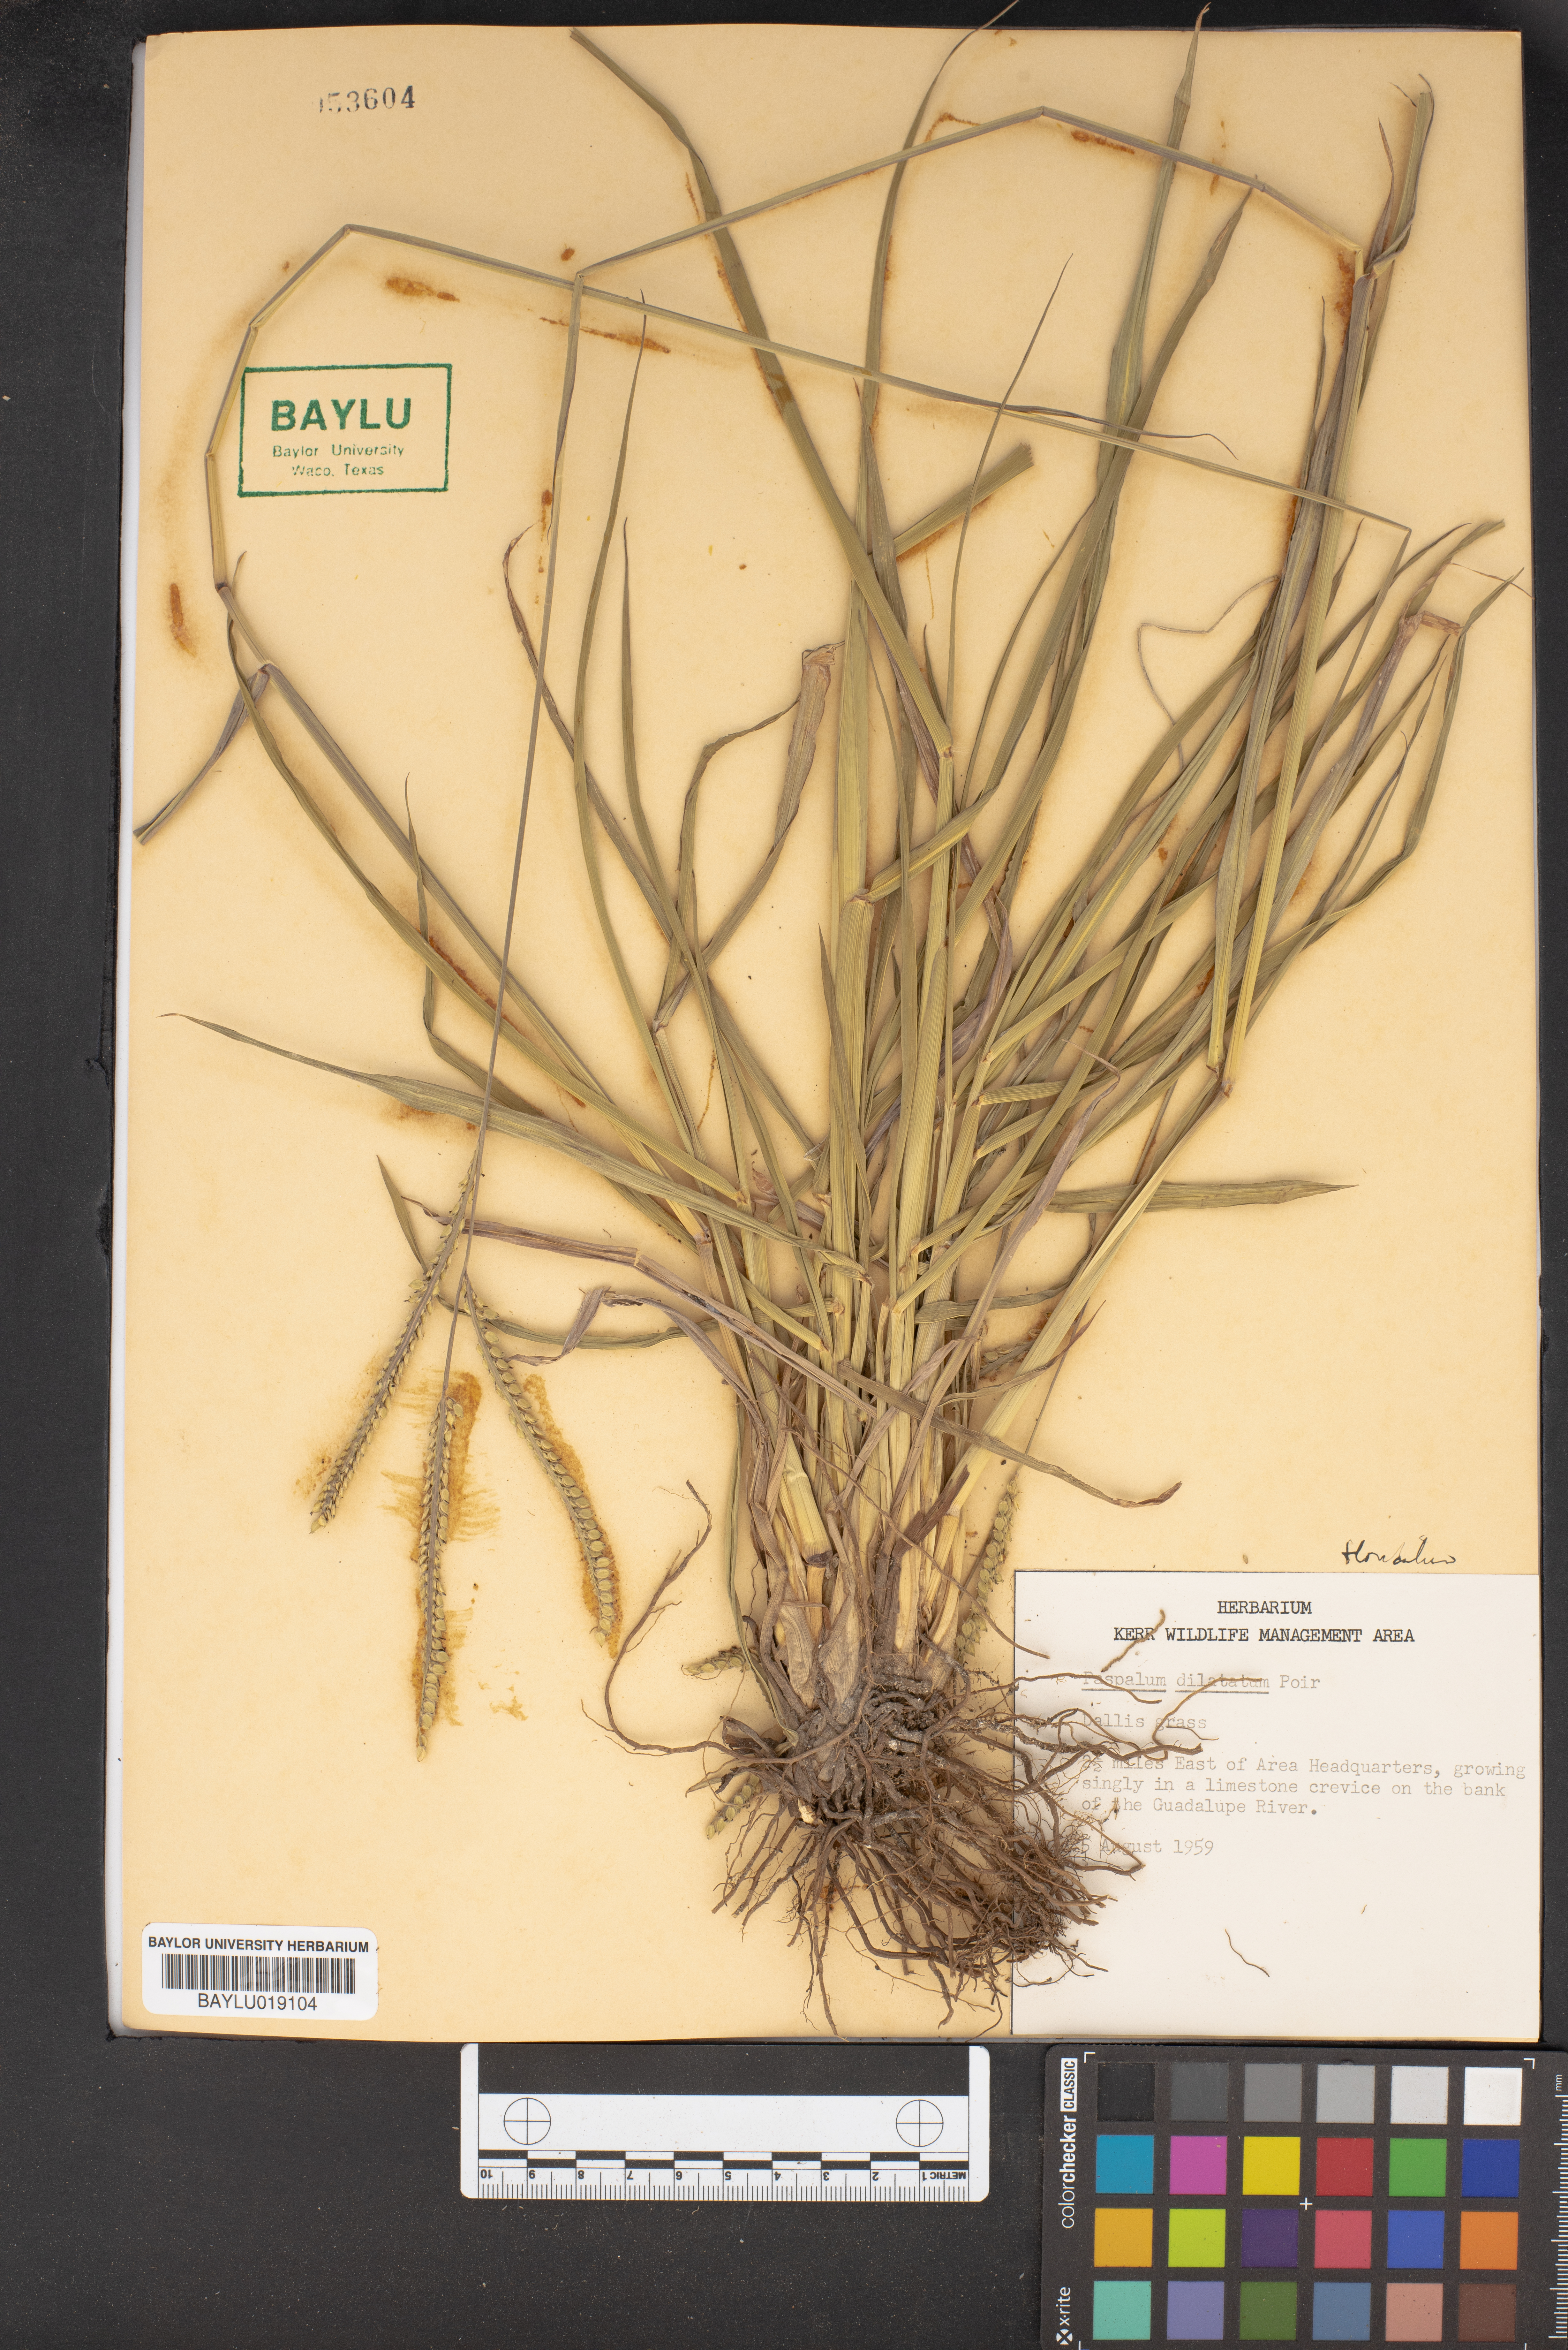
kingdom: Plantae
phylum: Tracheophyta
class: Liliopsida
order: Poales
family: Poaceae
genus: Paspalum
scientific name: Paspalum dilatatum
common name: Dallisgrass
